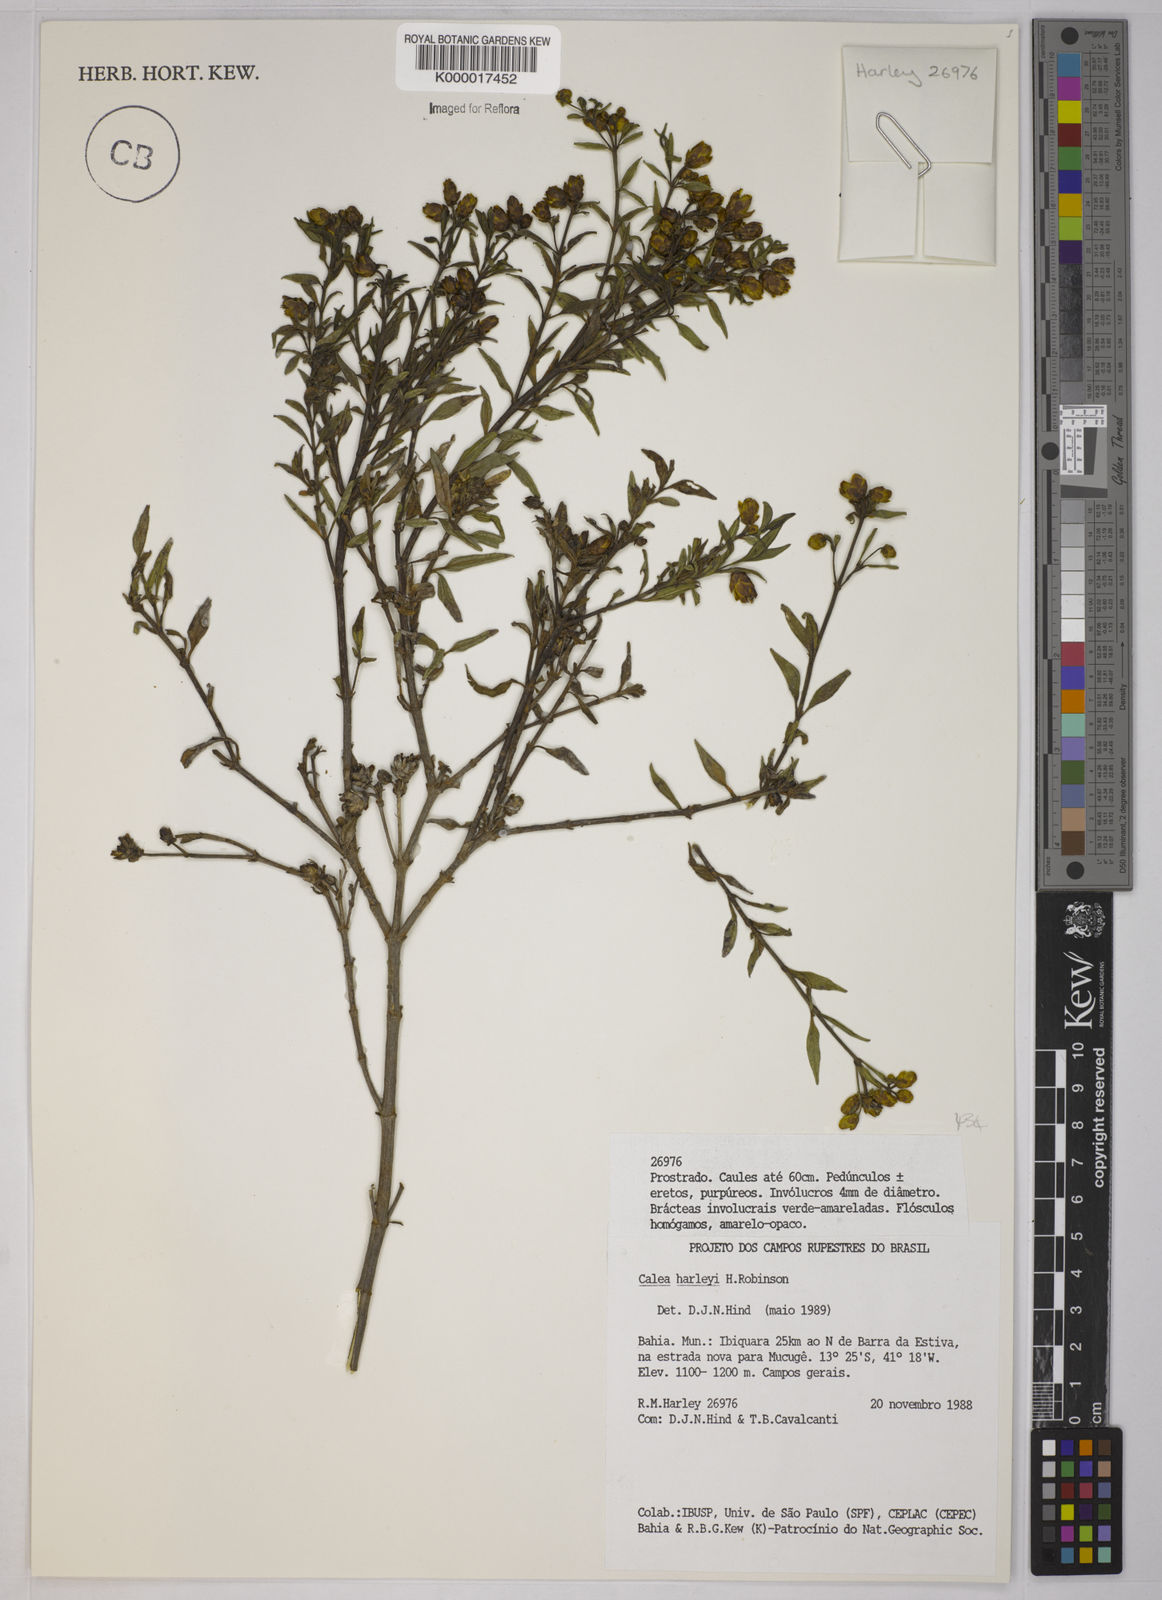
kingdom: Plantae
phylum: Tracheophyta
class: Magnoliopsida
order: Asterales
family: Asteraceae
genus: Calea
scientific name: Calea harleyi
